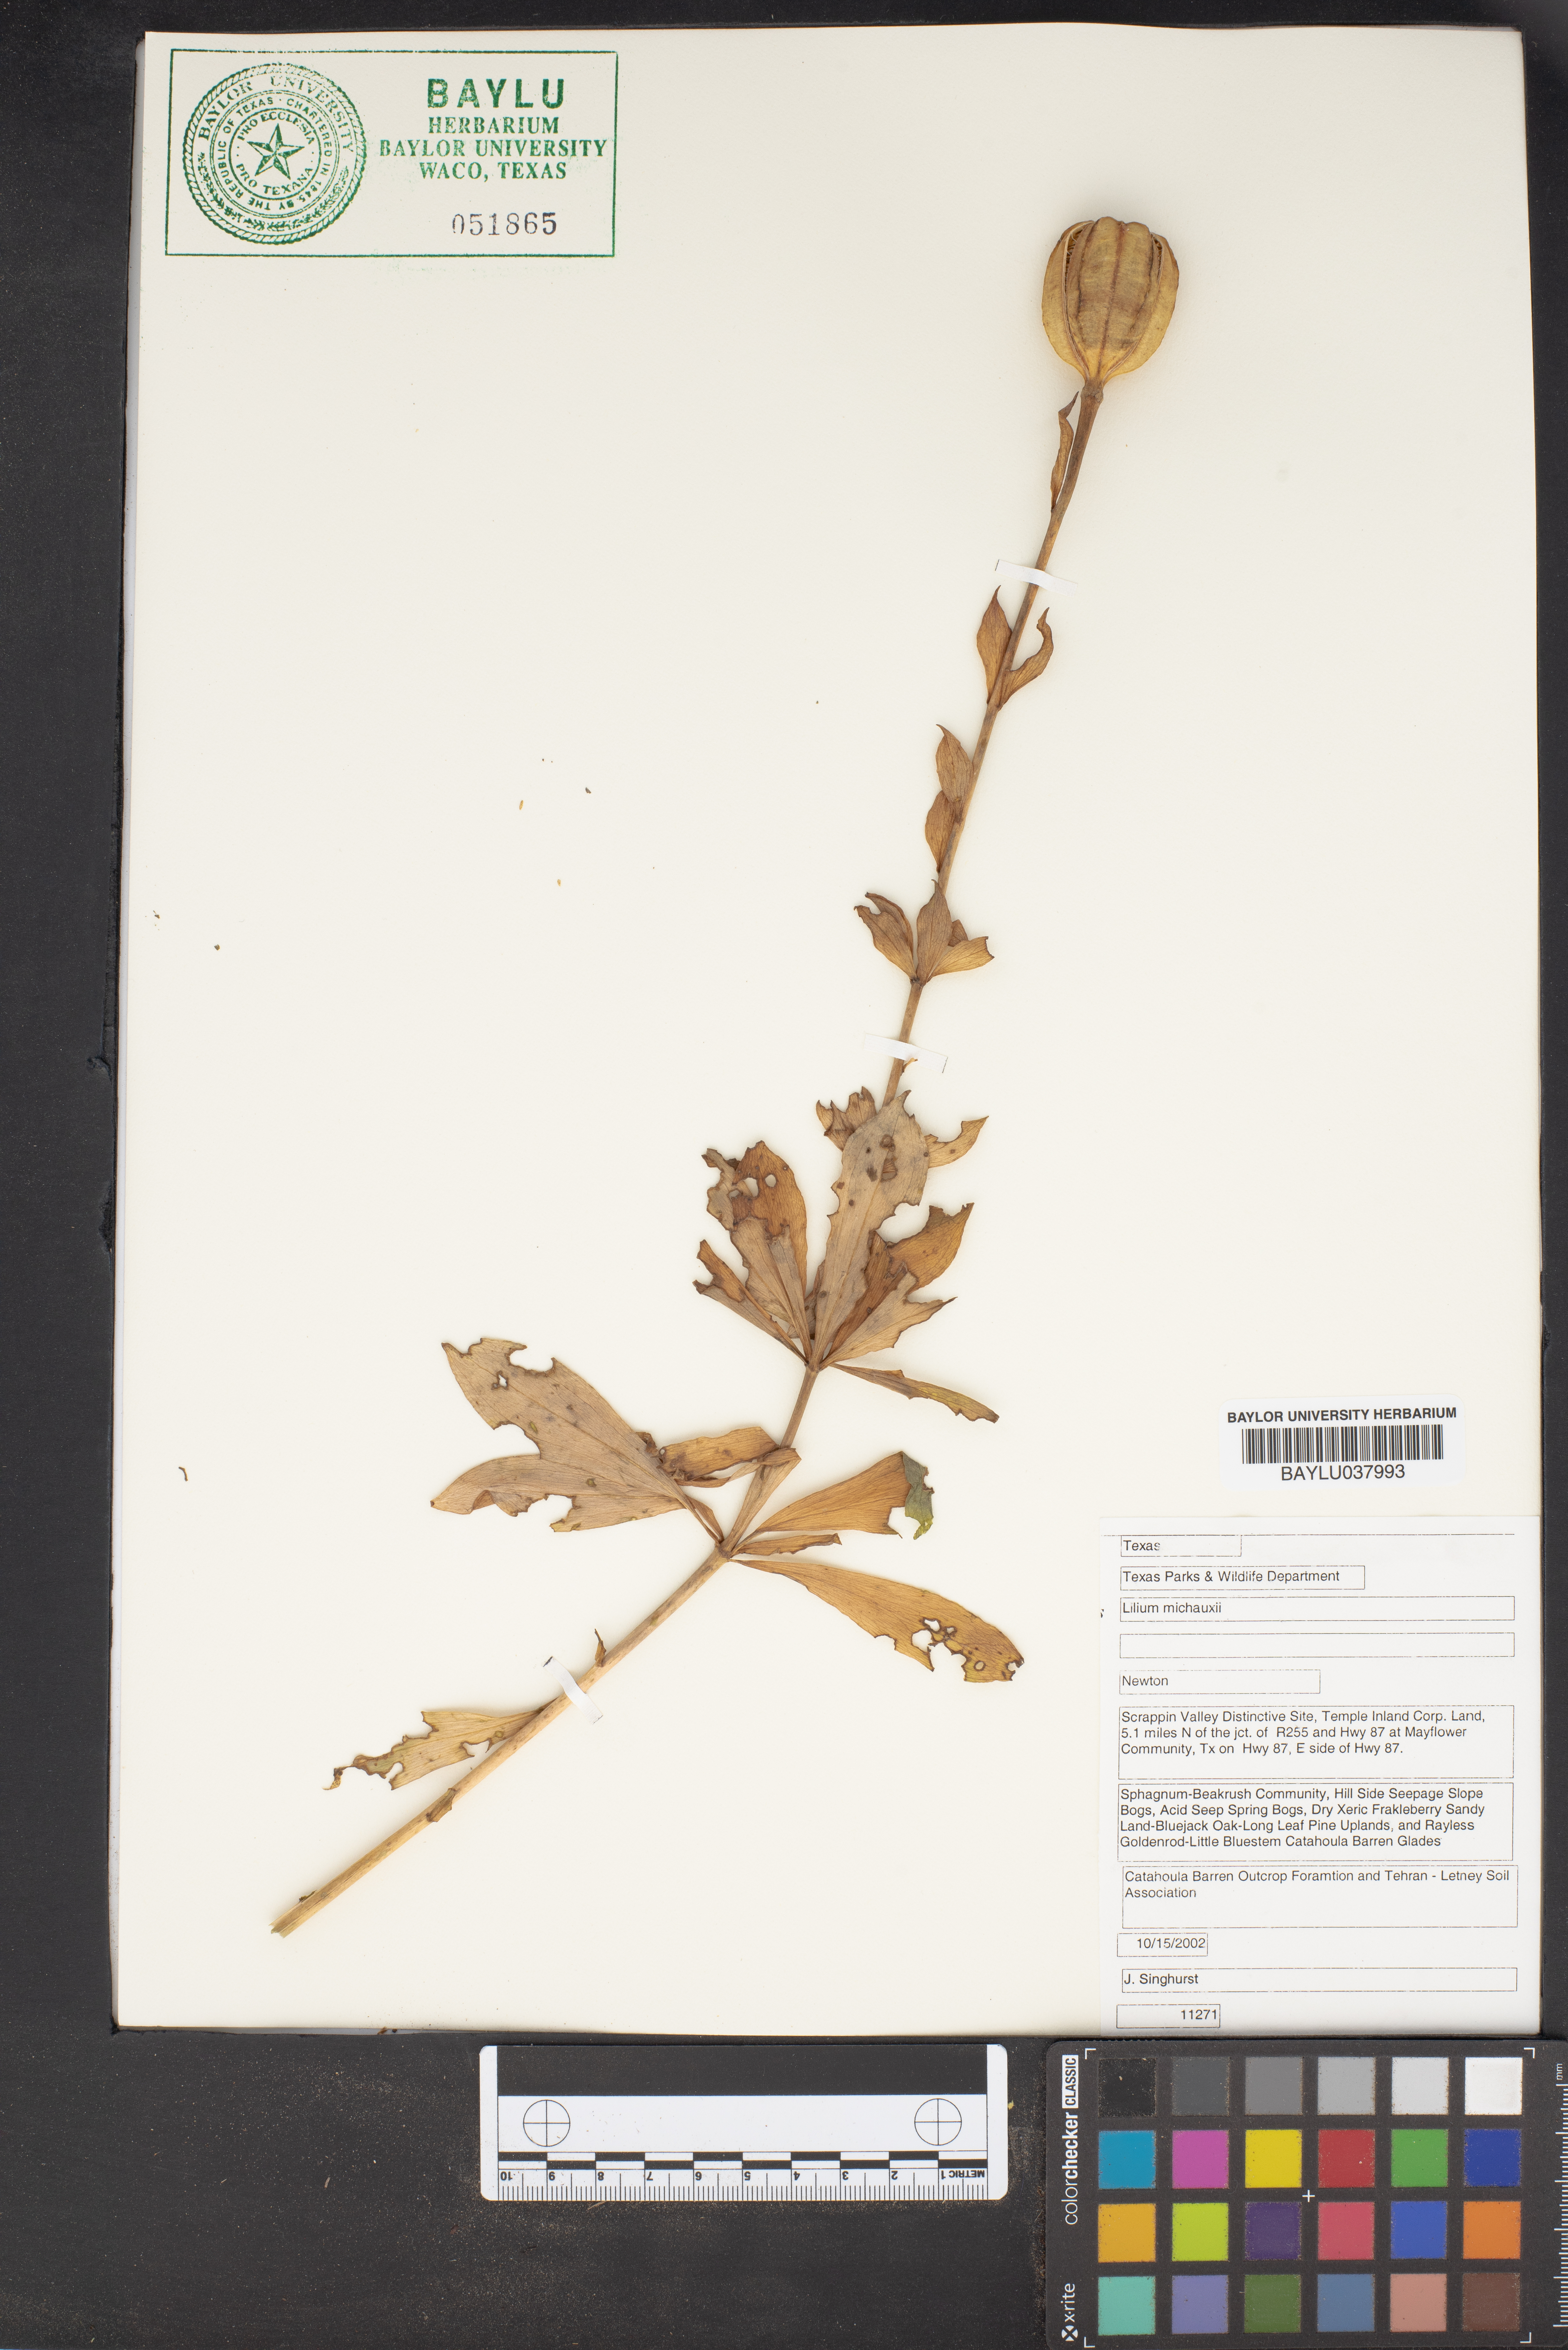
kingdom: Plantae
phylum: Tracheophyta
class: Liliopsida
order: Liliales
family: Liliaceae
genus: Lilium
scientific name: Lilium michauxii
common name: Carolina lily
